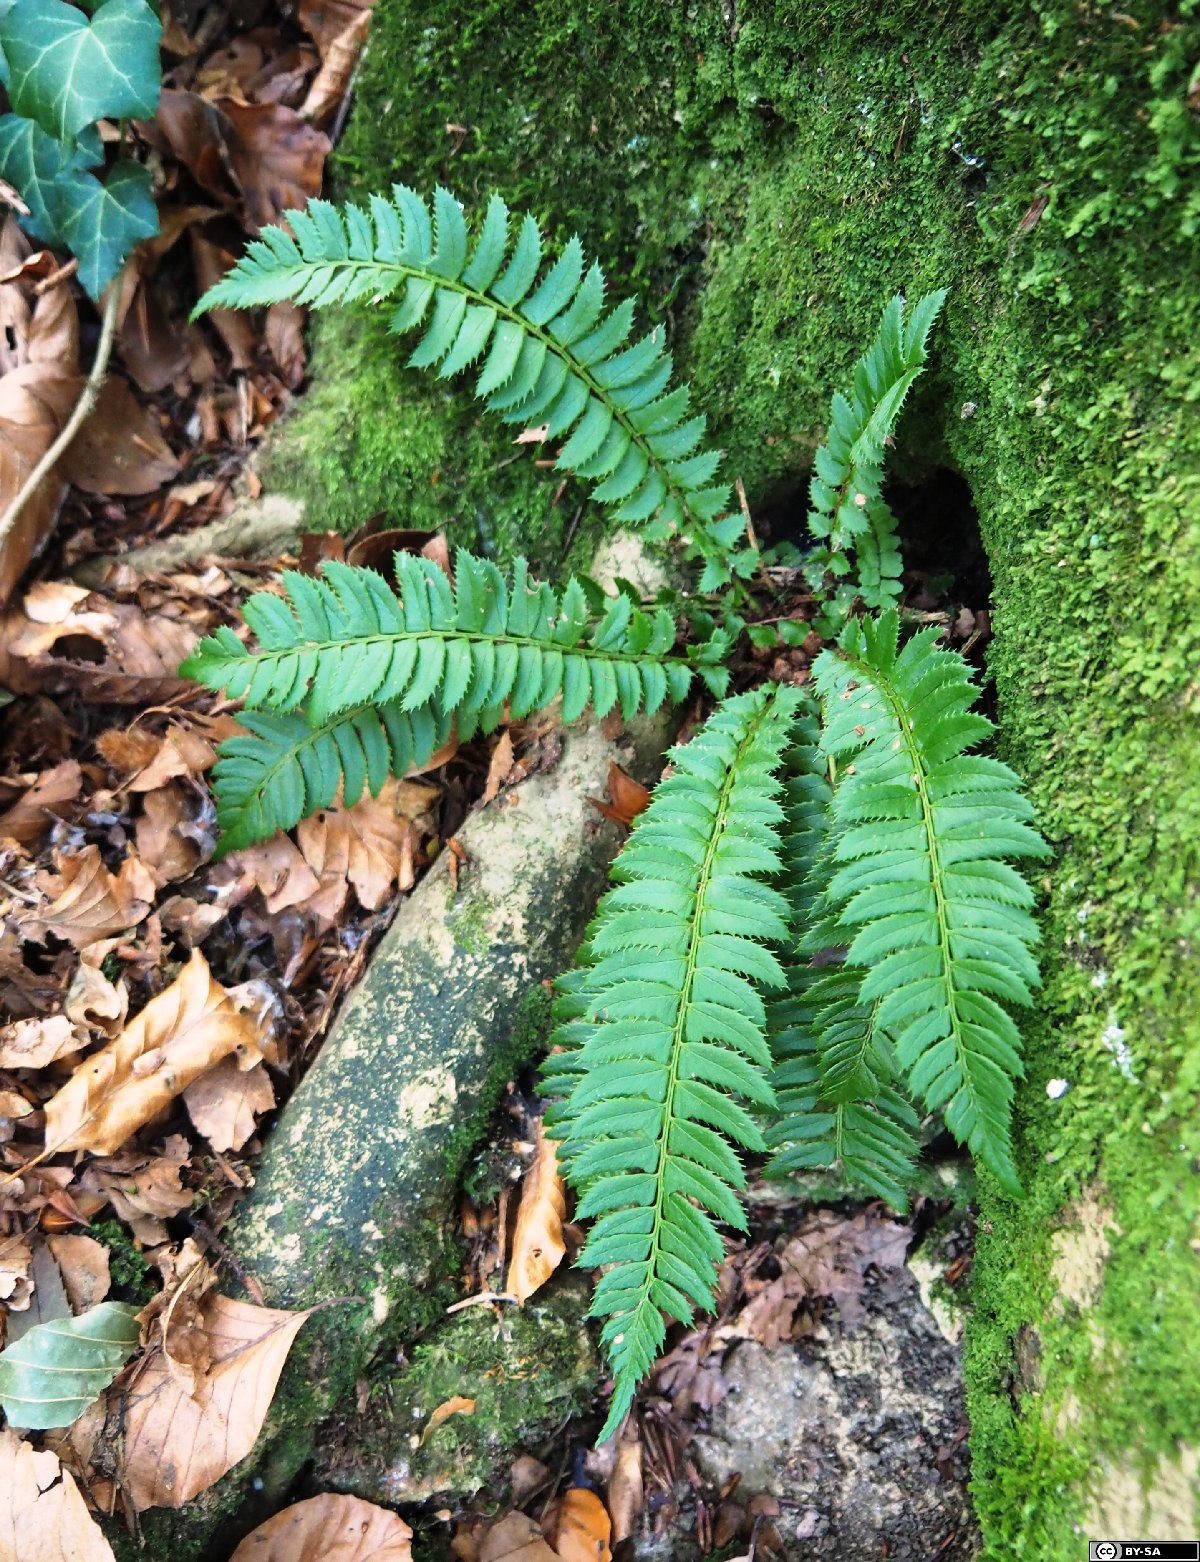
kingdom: Plantae
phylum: Tracheophyta
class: Polypodiopsida
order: Polypodiales
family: Dryopteridaceae
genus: Polystichum
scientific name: Polystichum lonchitis
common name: Holly fern
